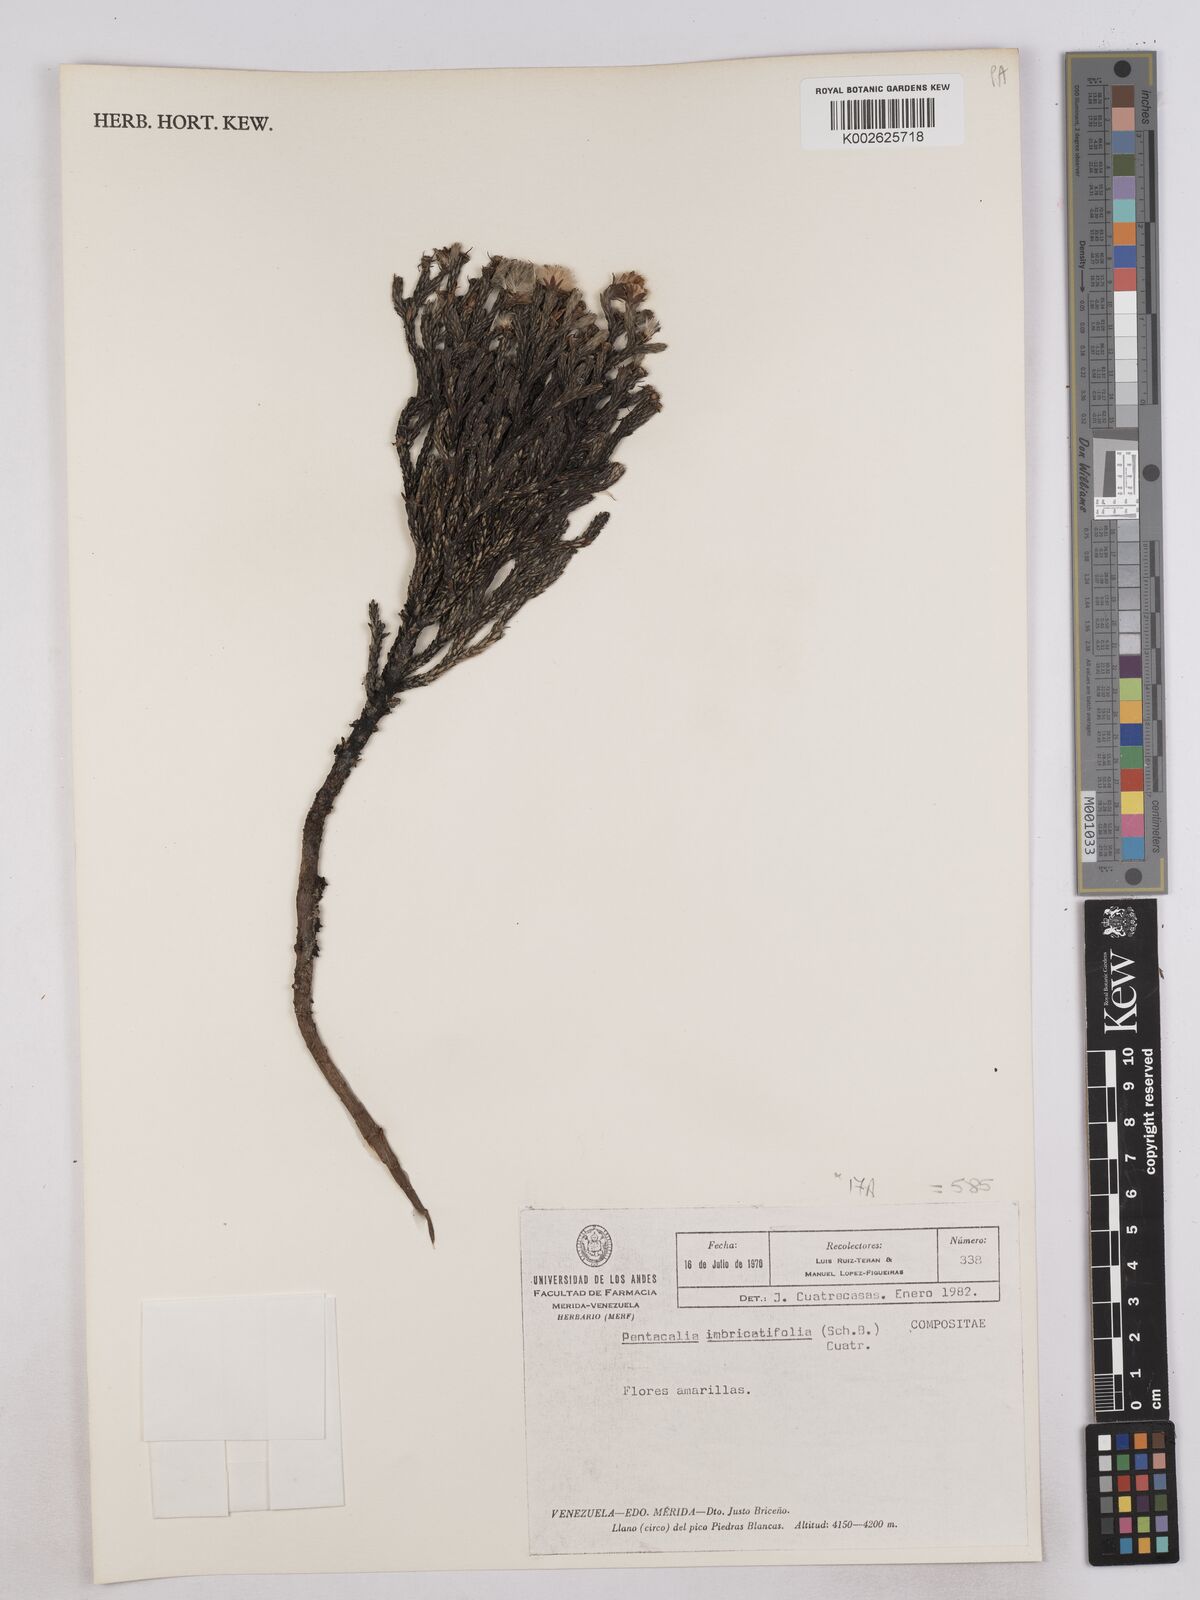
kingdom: Plantae
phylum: Tracheophyta
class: Magnoliopsida
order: Asterales
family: Asteraceae
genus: Monticalia
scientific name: Monticalia imbricatifolia
